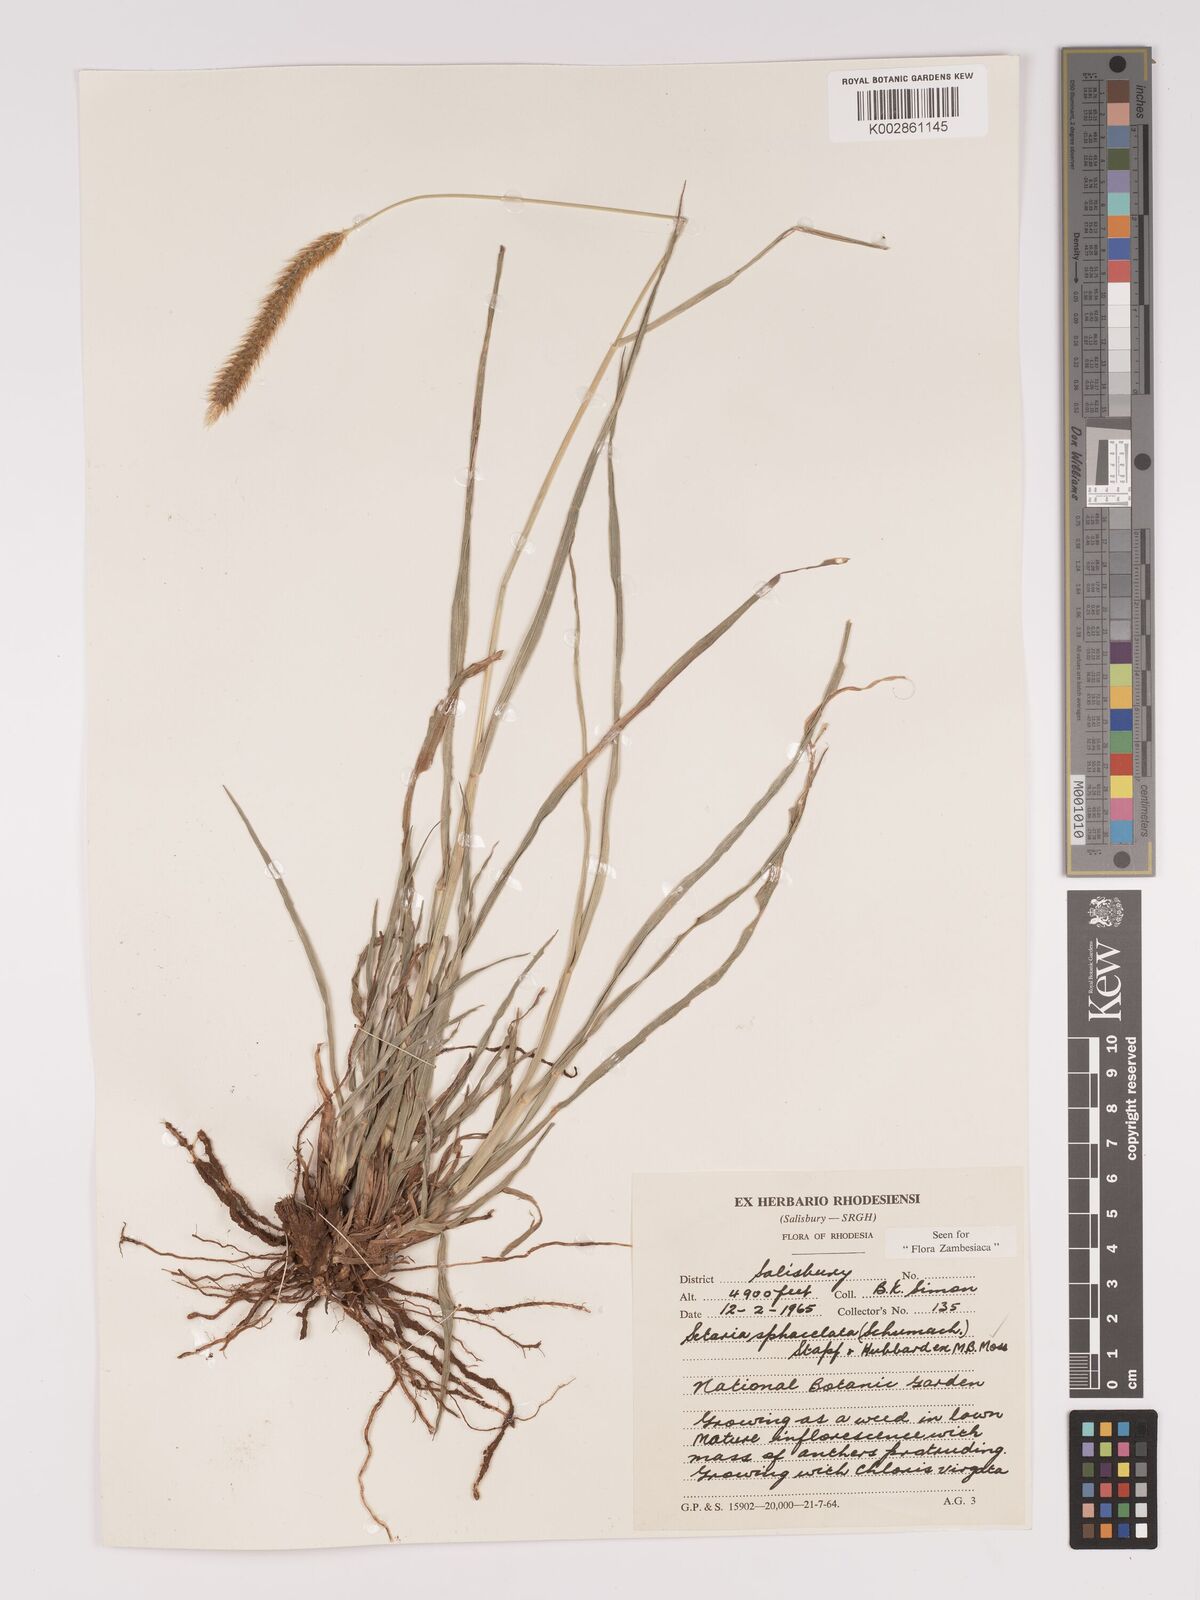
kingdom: Plantae
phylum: Tracheophyta
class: Liliopsida
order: Poales
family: Poaceae
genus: Setaria
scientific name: Setaria sphacelata
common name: African bristlegrass
